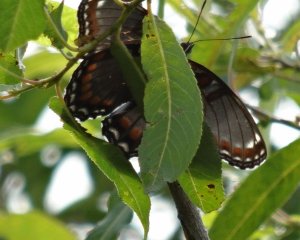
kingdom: Animalia
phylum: Arthropoda
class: Insecta
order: Lepidoptera
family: Nymphalidae
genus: Limenitis
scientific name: Limenitis astyanax
